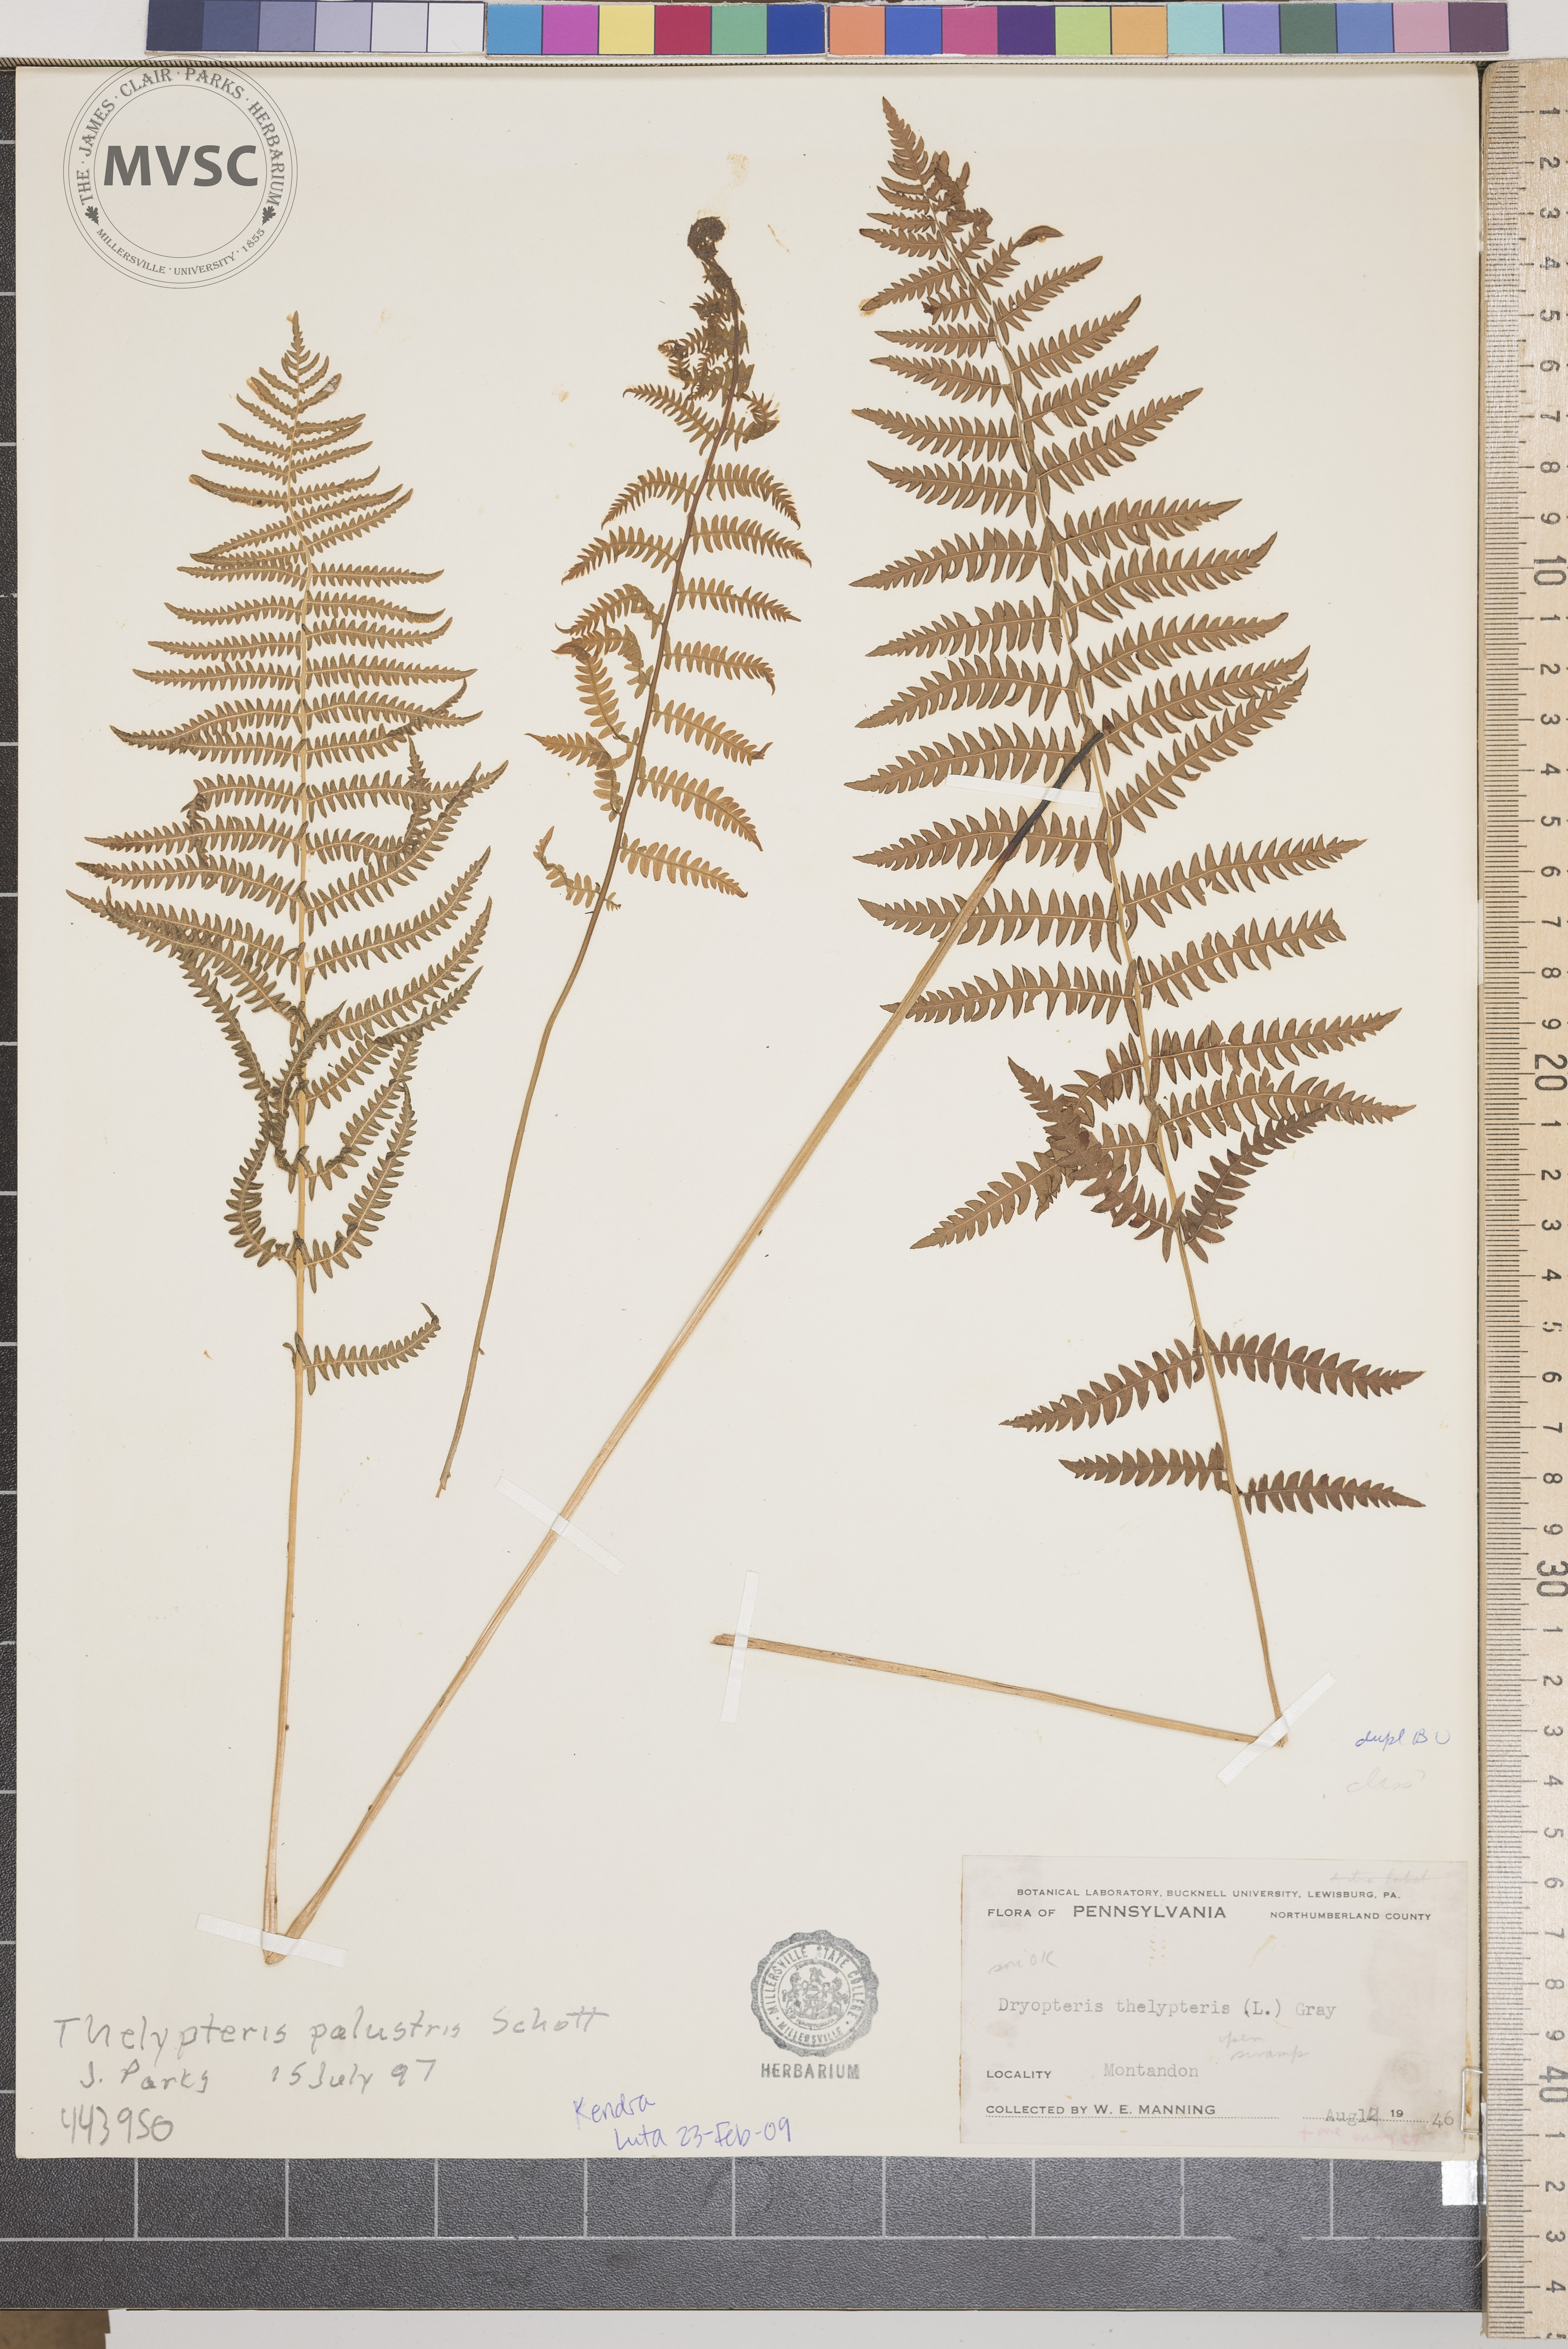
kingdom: Plantae
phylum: Tracheophyta
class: Polypodiopsida
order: Polypodiales
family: Thelypteridaceae
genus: Thelypteris
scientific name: Thelypteris palustris
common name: Marsh fern
